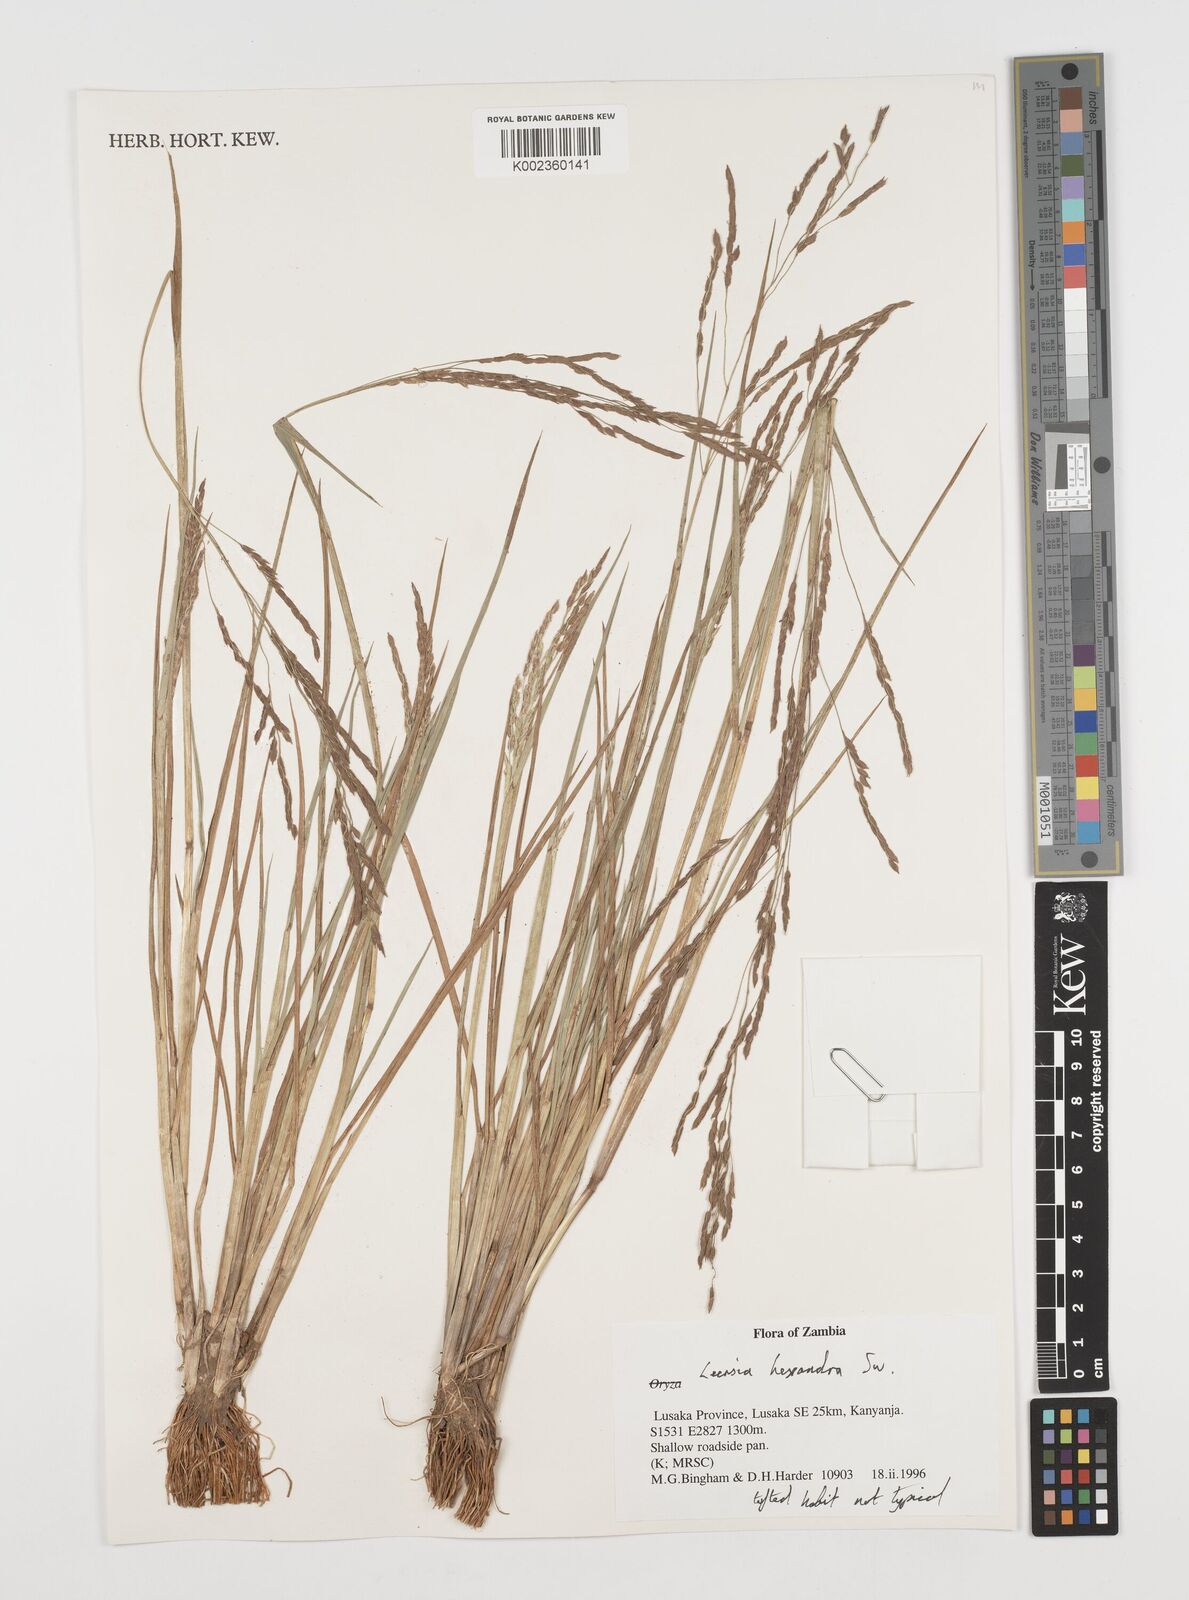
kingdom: Plantae
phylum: Tracheophyta
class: Liliopsida
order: Poales
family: Poaceae
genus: Leersia
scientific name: Leersia hexandra
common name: Southern cut grass
